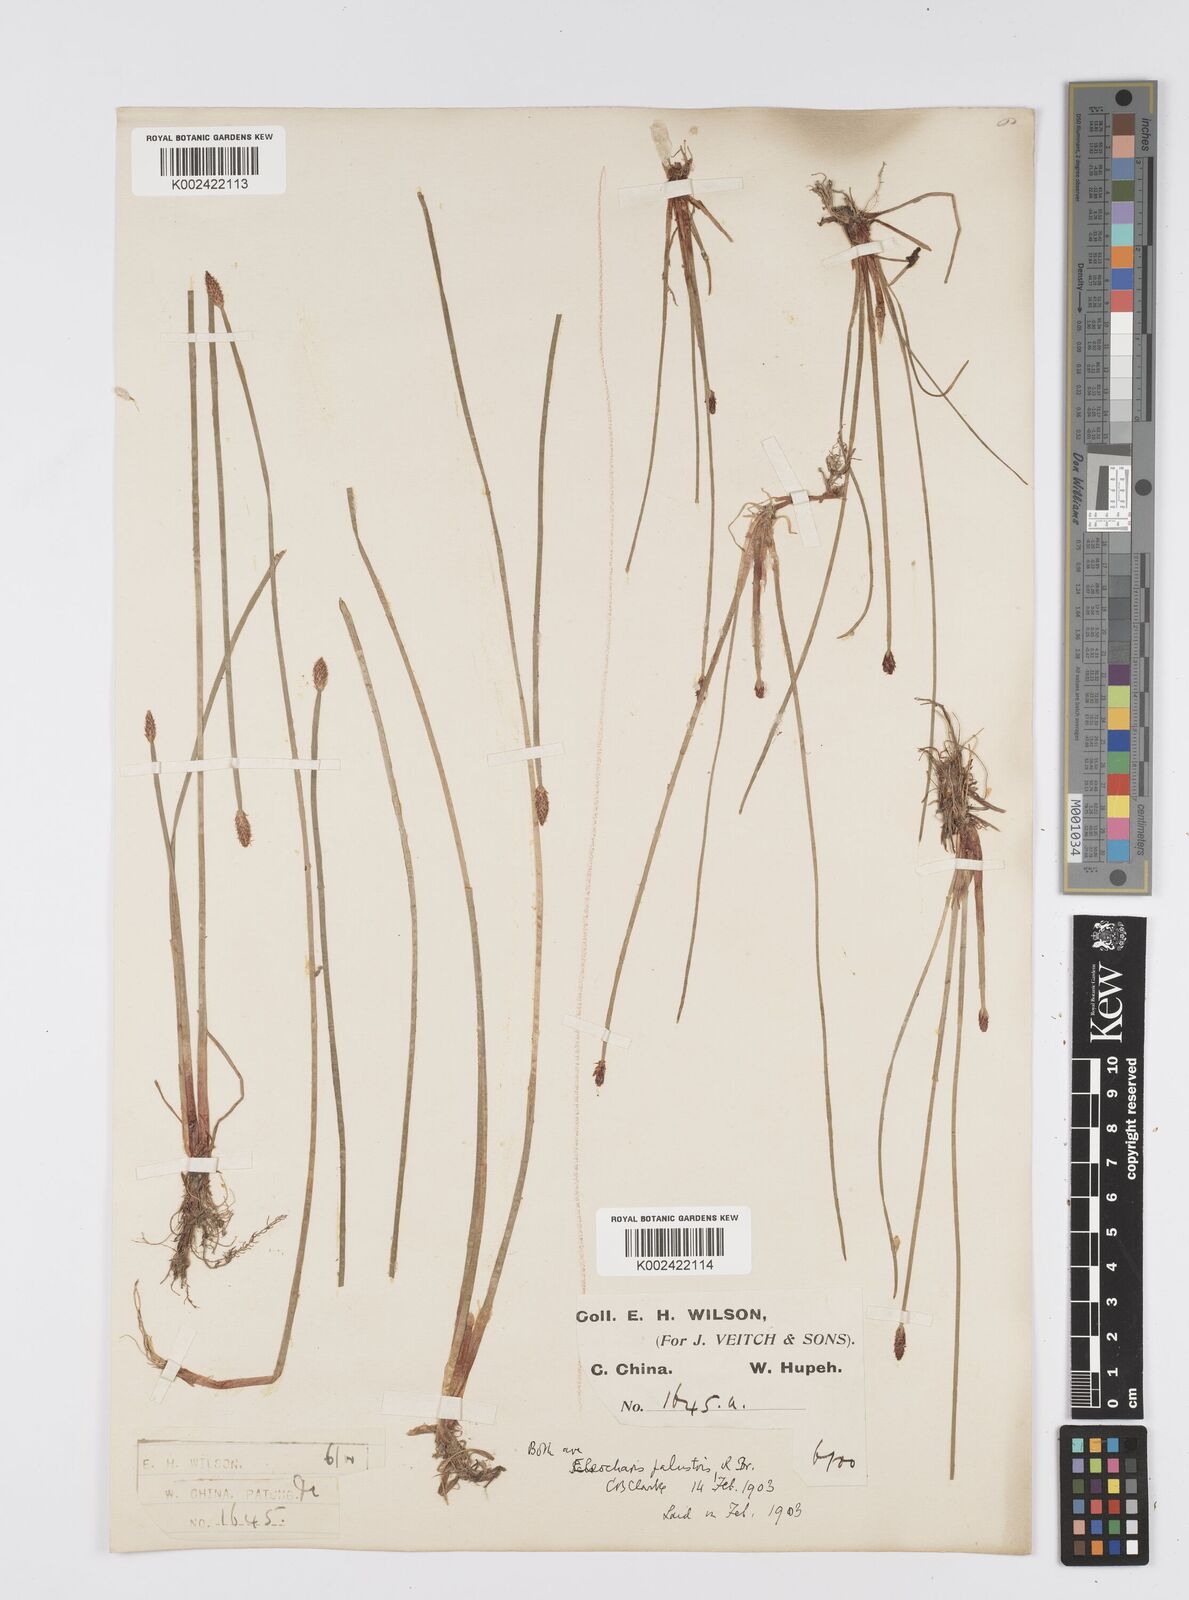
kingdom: Plantae
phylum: Tracheophyta
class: Liliopsida
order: Poales
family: Cyperaceae
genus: Eleocharis
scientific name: Eleocharis palustris
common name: Common spike-rush
